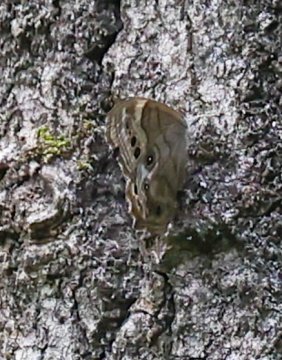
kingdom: Animalia
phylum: Arthropoda
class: Insecta
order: Lepidoptera
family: Nymphalidae
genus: Lethe
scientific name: Lethe anthedon
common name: Northern Pearly-Eye
